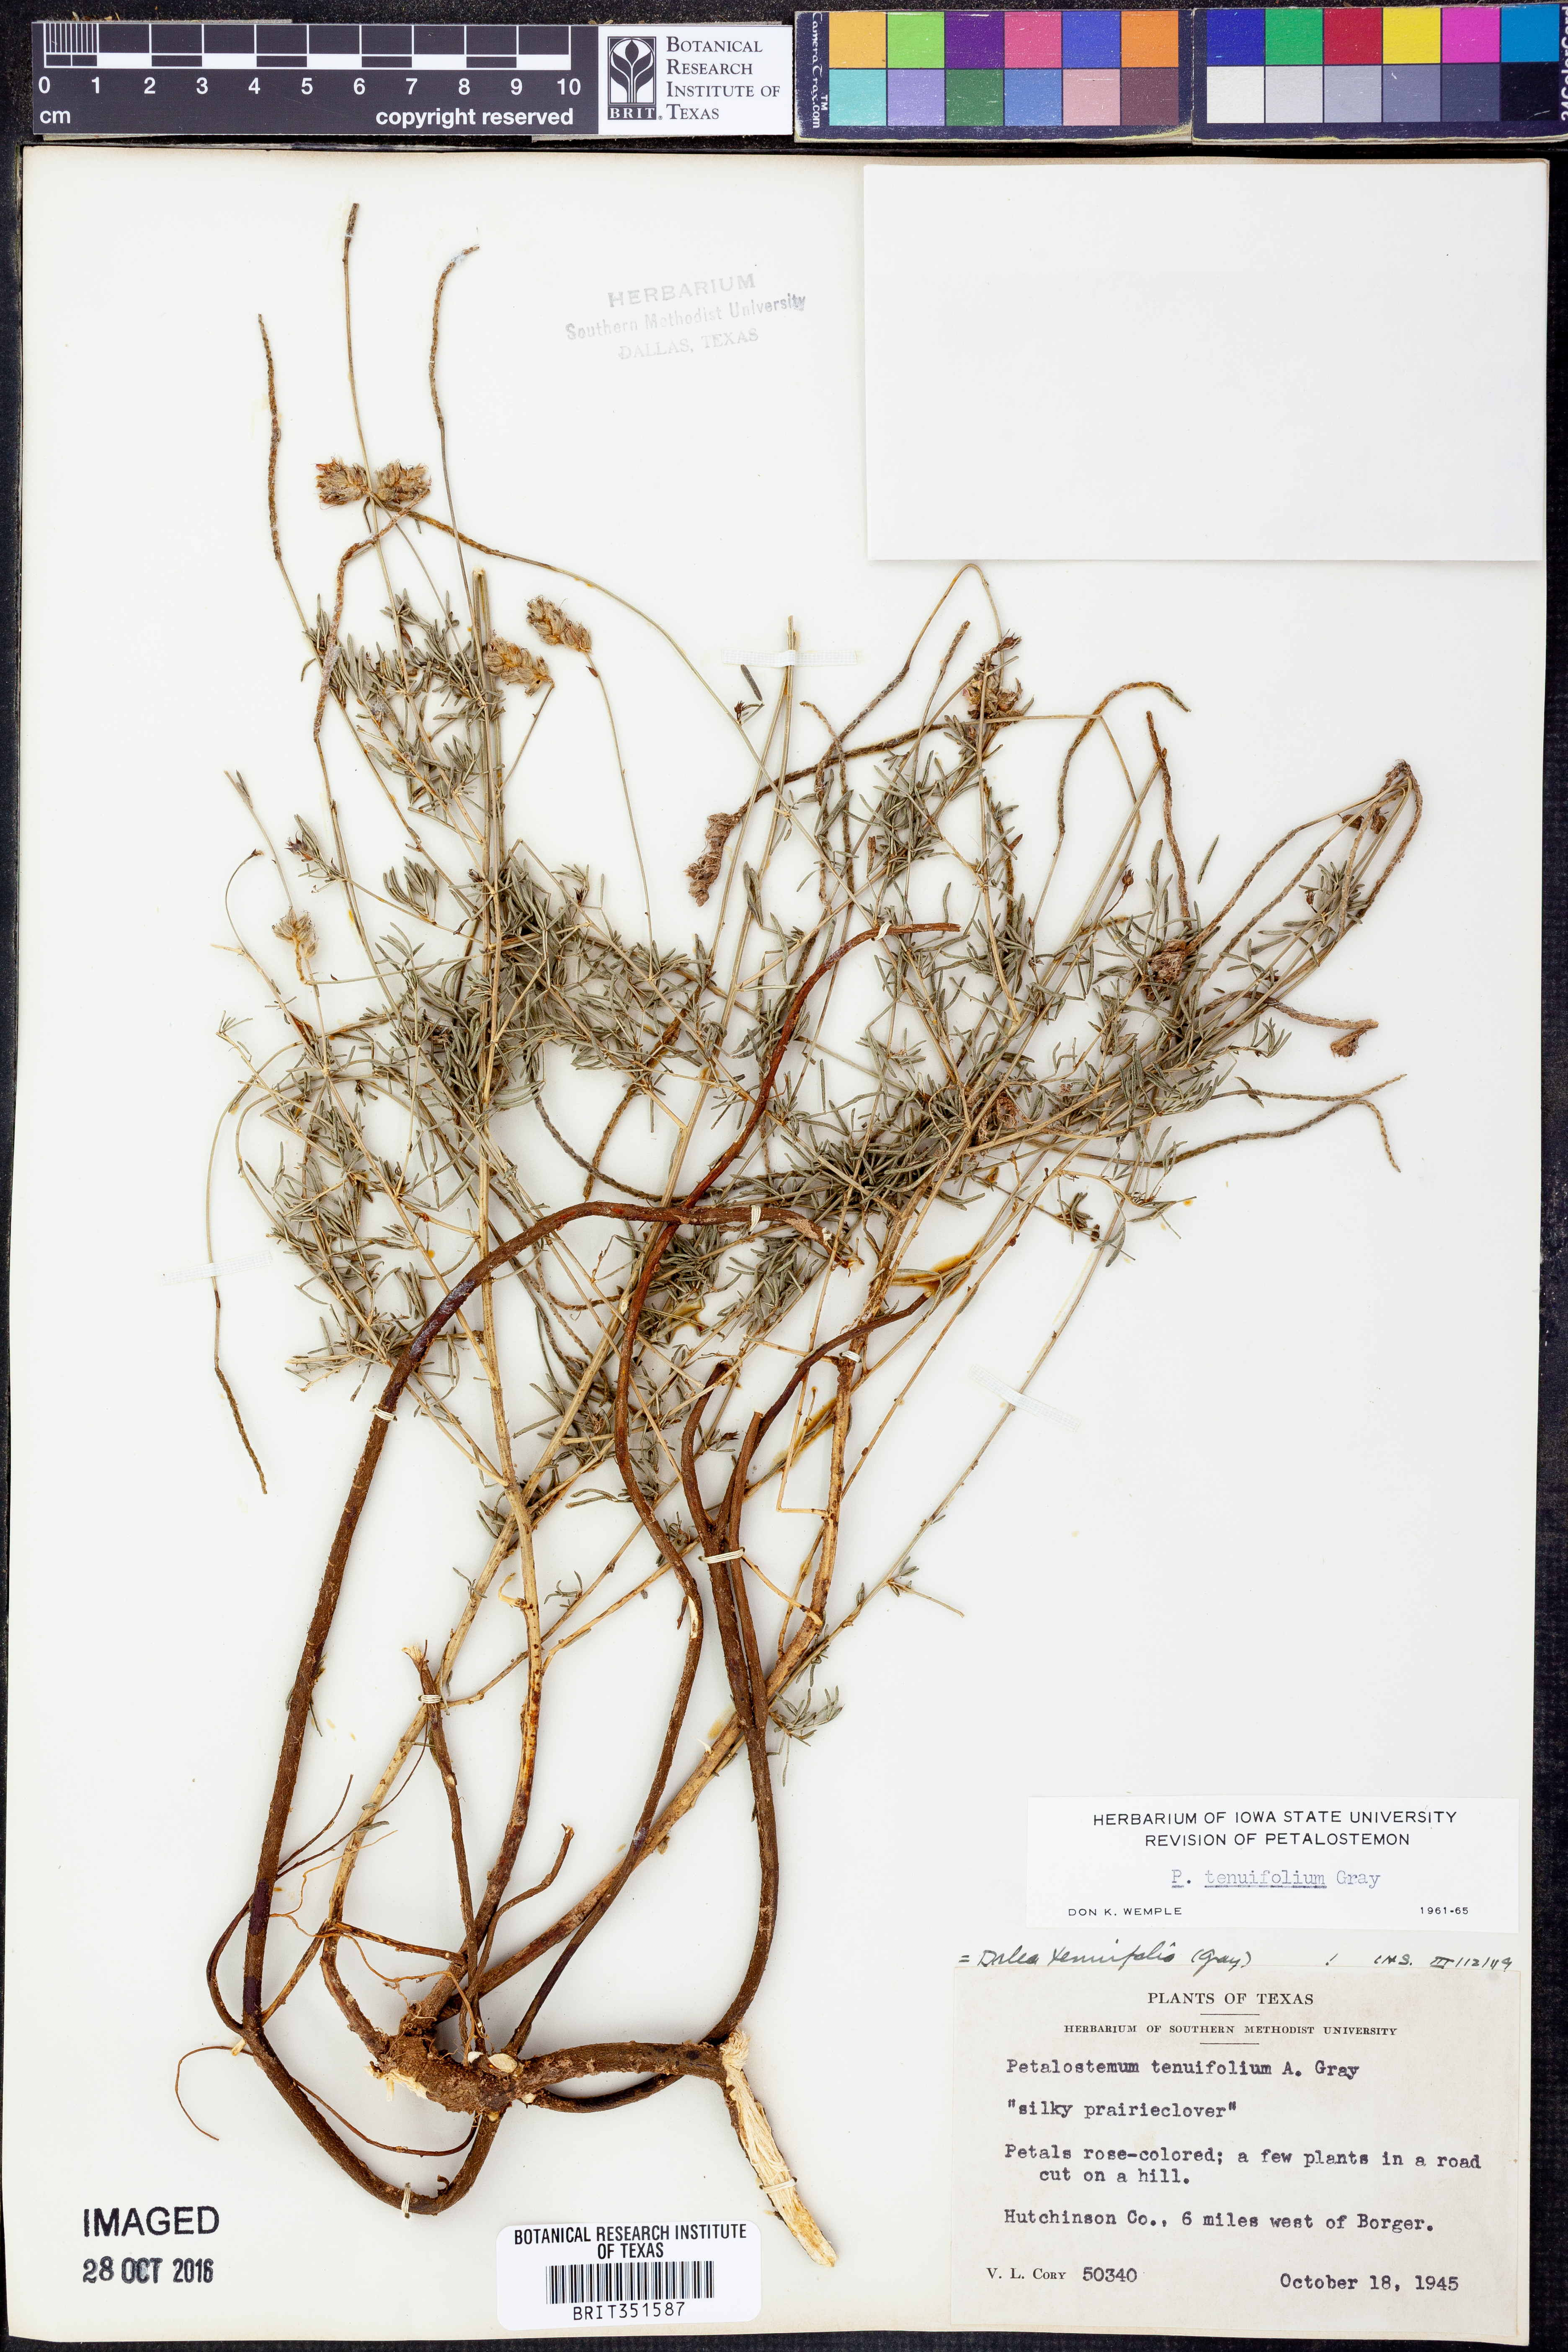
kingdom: Plantae
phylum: Tracheophyta
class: Magnoliopsida
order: Fabales
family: Fabaceae
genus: Dalea
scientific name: Dalea tenuifolia
